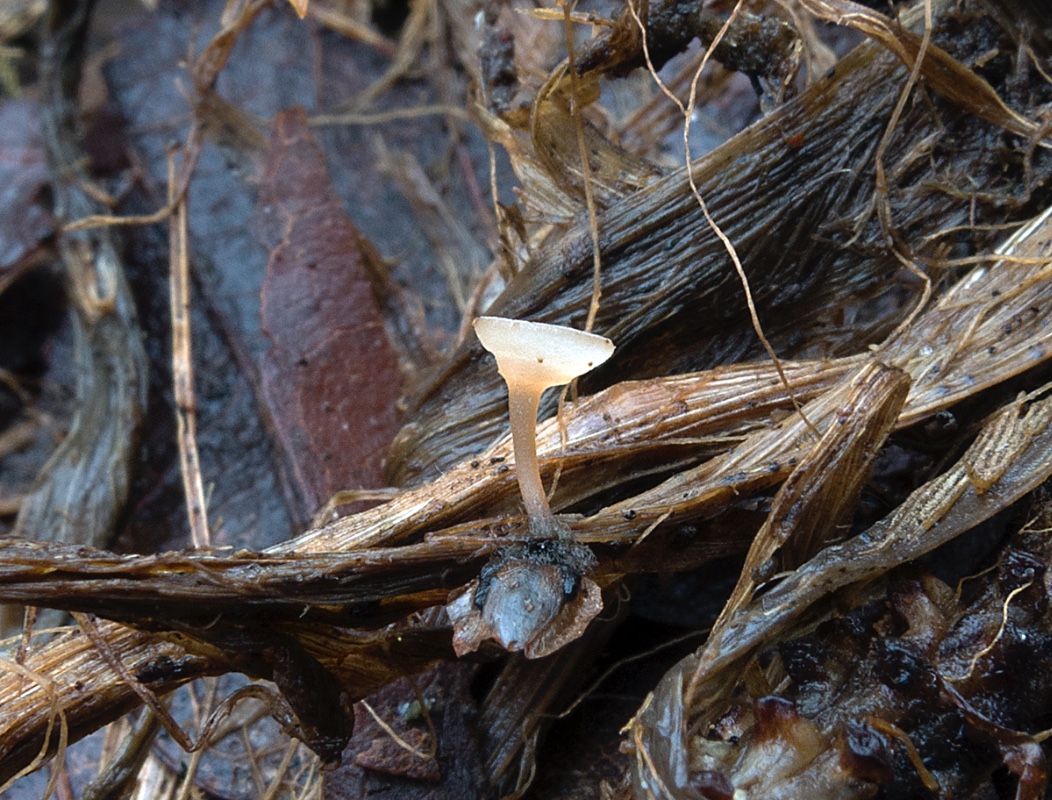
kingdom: Fungi
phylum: Ascomycota
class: Leotiomycetes
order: Helotiales
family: Sclerotiniaceae
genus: Ciboria
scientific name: Ciboria betulae
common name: birkefrø-knoldskive
